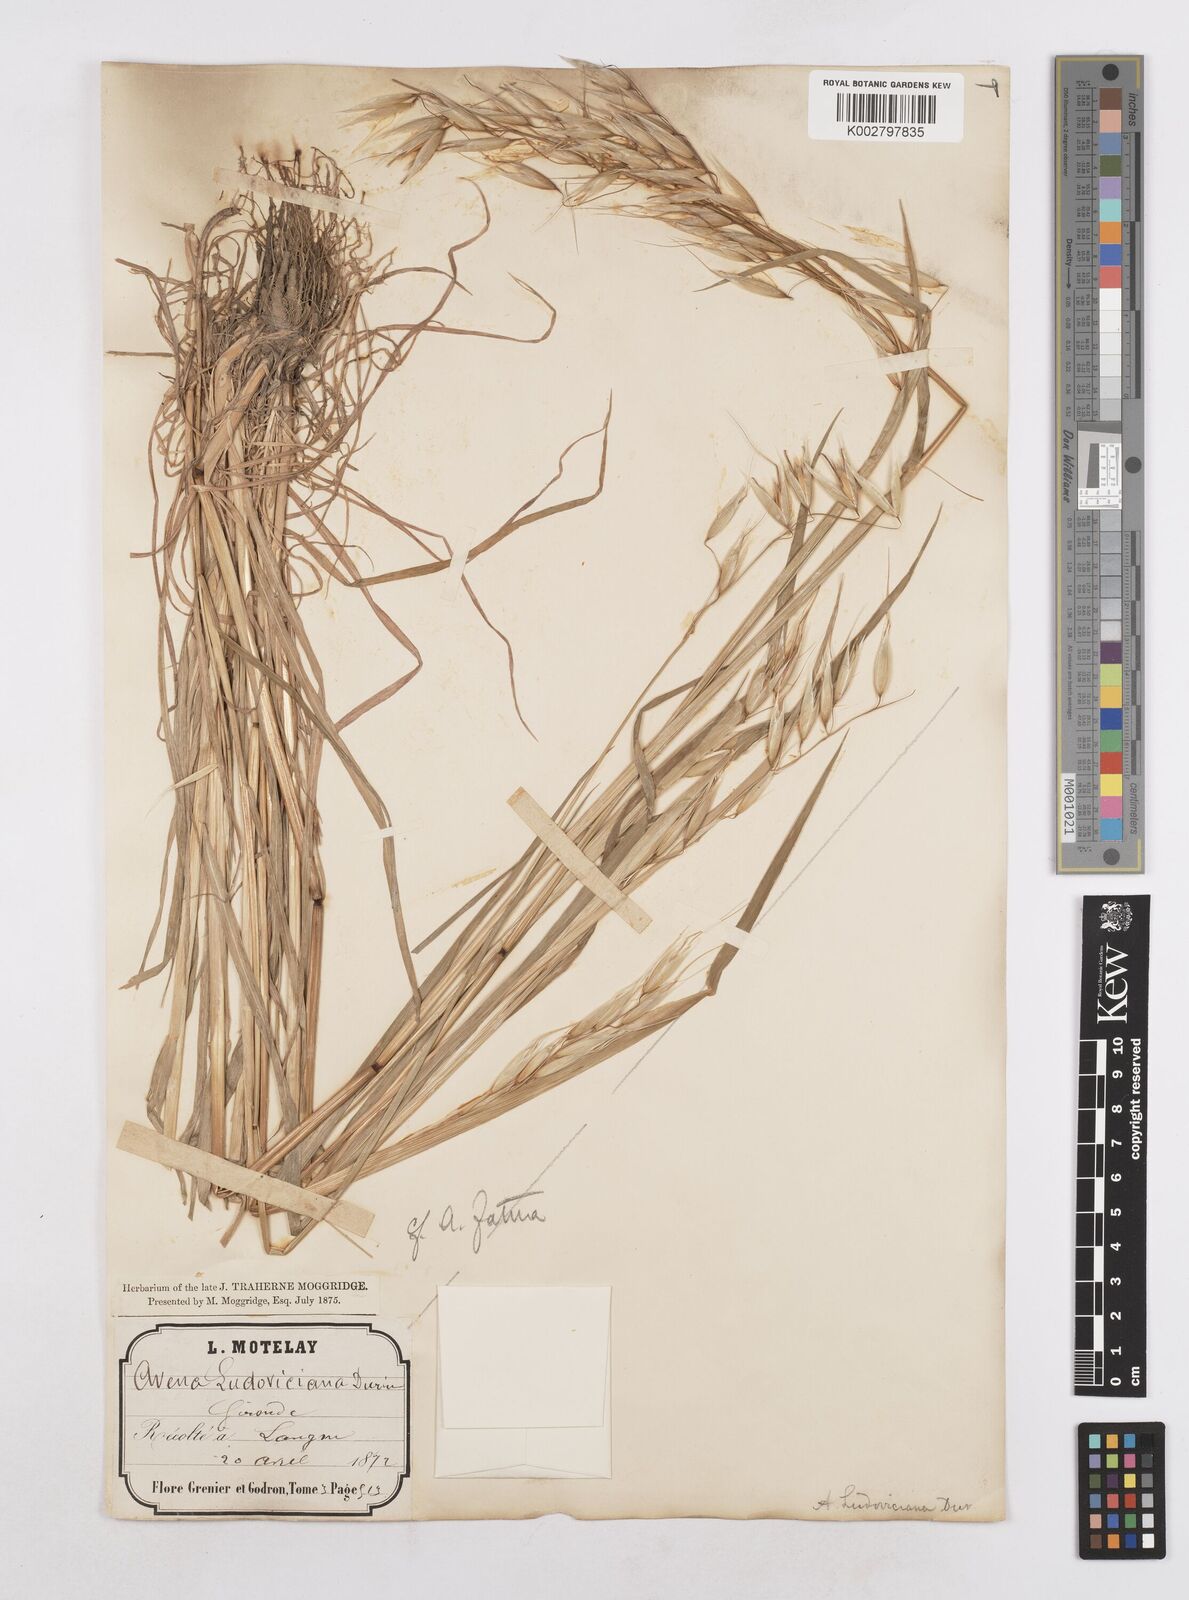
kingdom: Plantae
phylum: Tracheophyta
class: Liliopsida
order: Poales
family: Poaceae
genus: Avena
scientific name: Avena sterilis
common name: Animated oat
